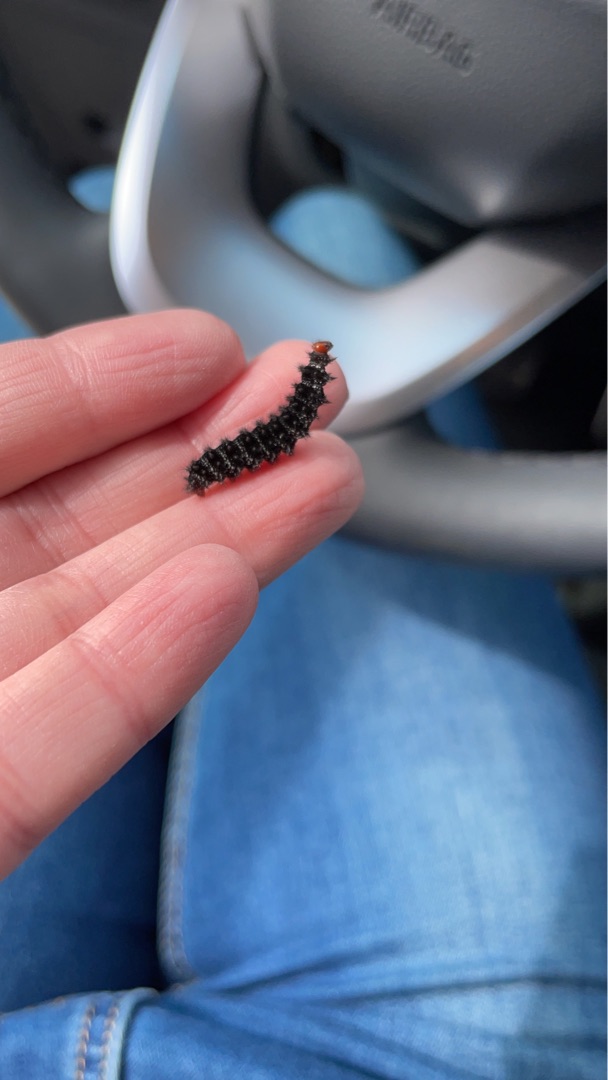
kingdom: Animalia
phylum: Arthropoda
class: Insecta
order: Lepidoptera
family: Nymphalidae
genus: Melitaea
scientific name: Melitaea cinxia
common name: Okkergul pletvinge
